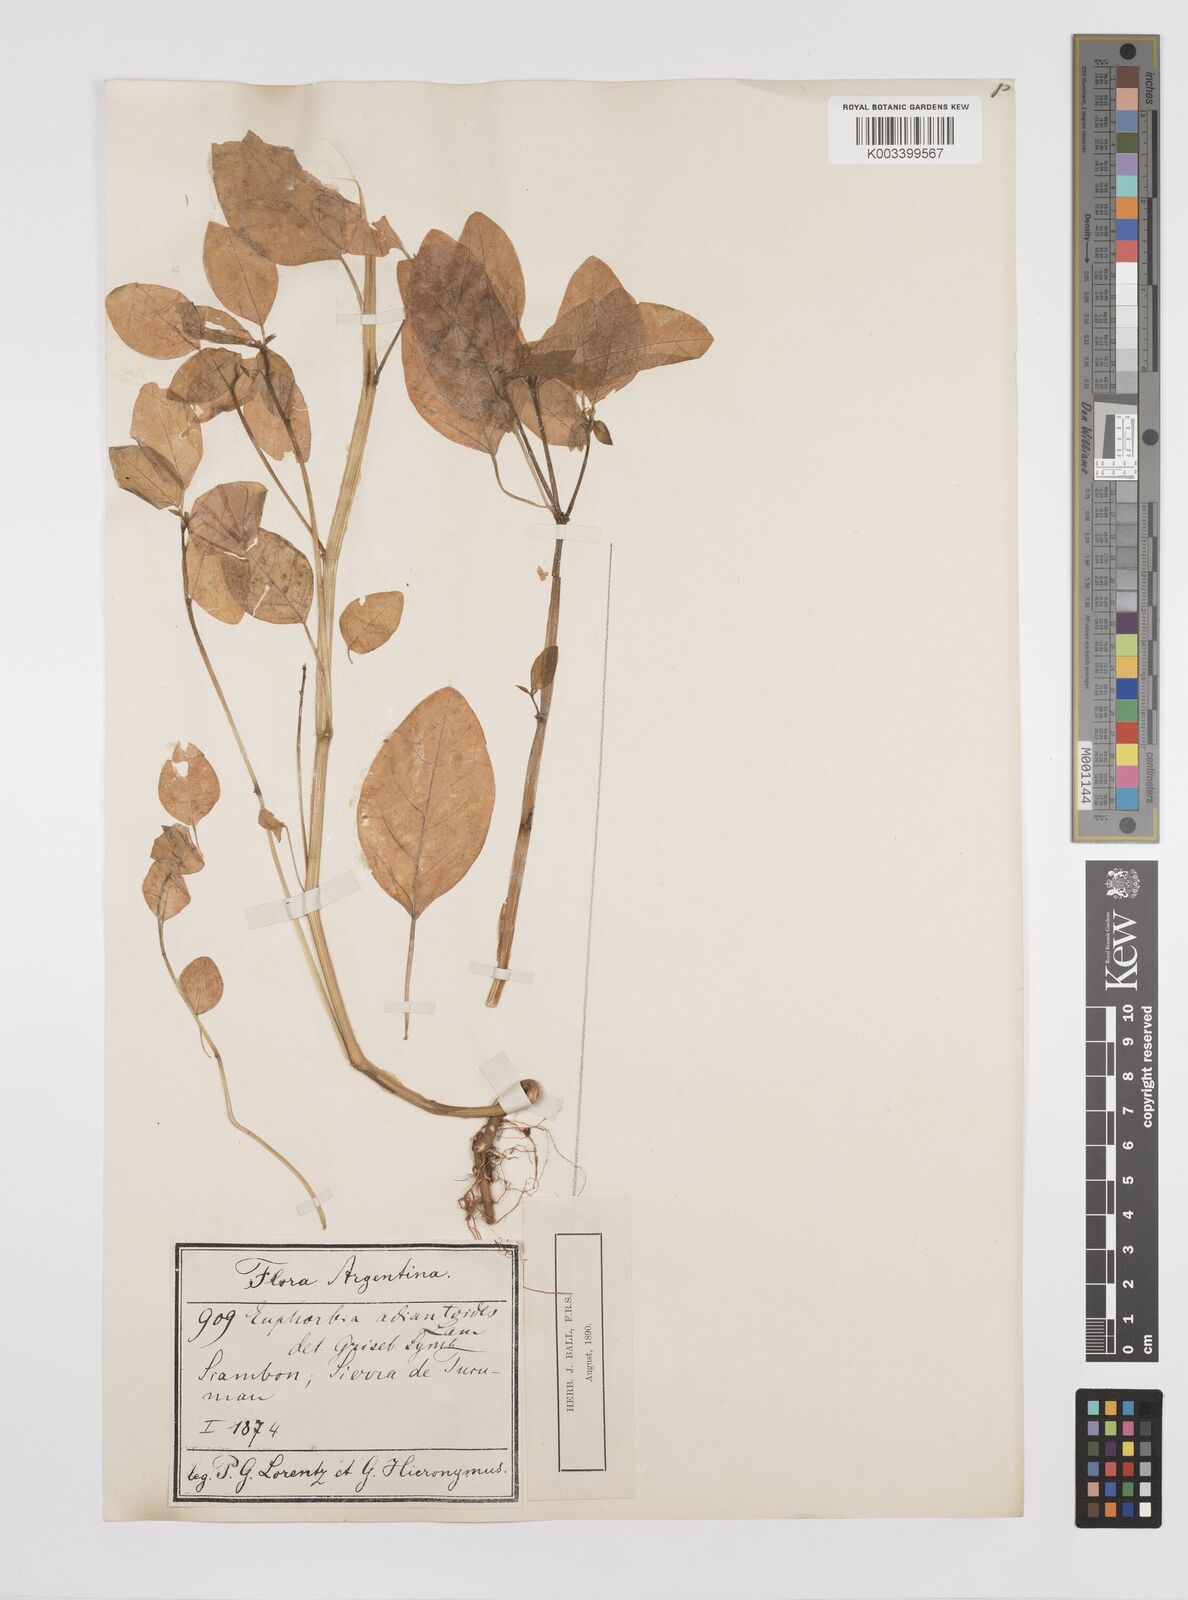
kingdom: Plantae
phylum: Tracheophyta
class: Magnoliopsida
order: Malpighiales
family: Euphorbiaceae
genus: Euphorbia
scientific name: Euphorbia adiantoides
